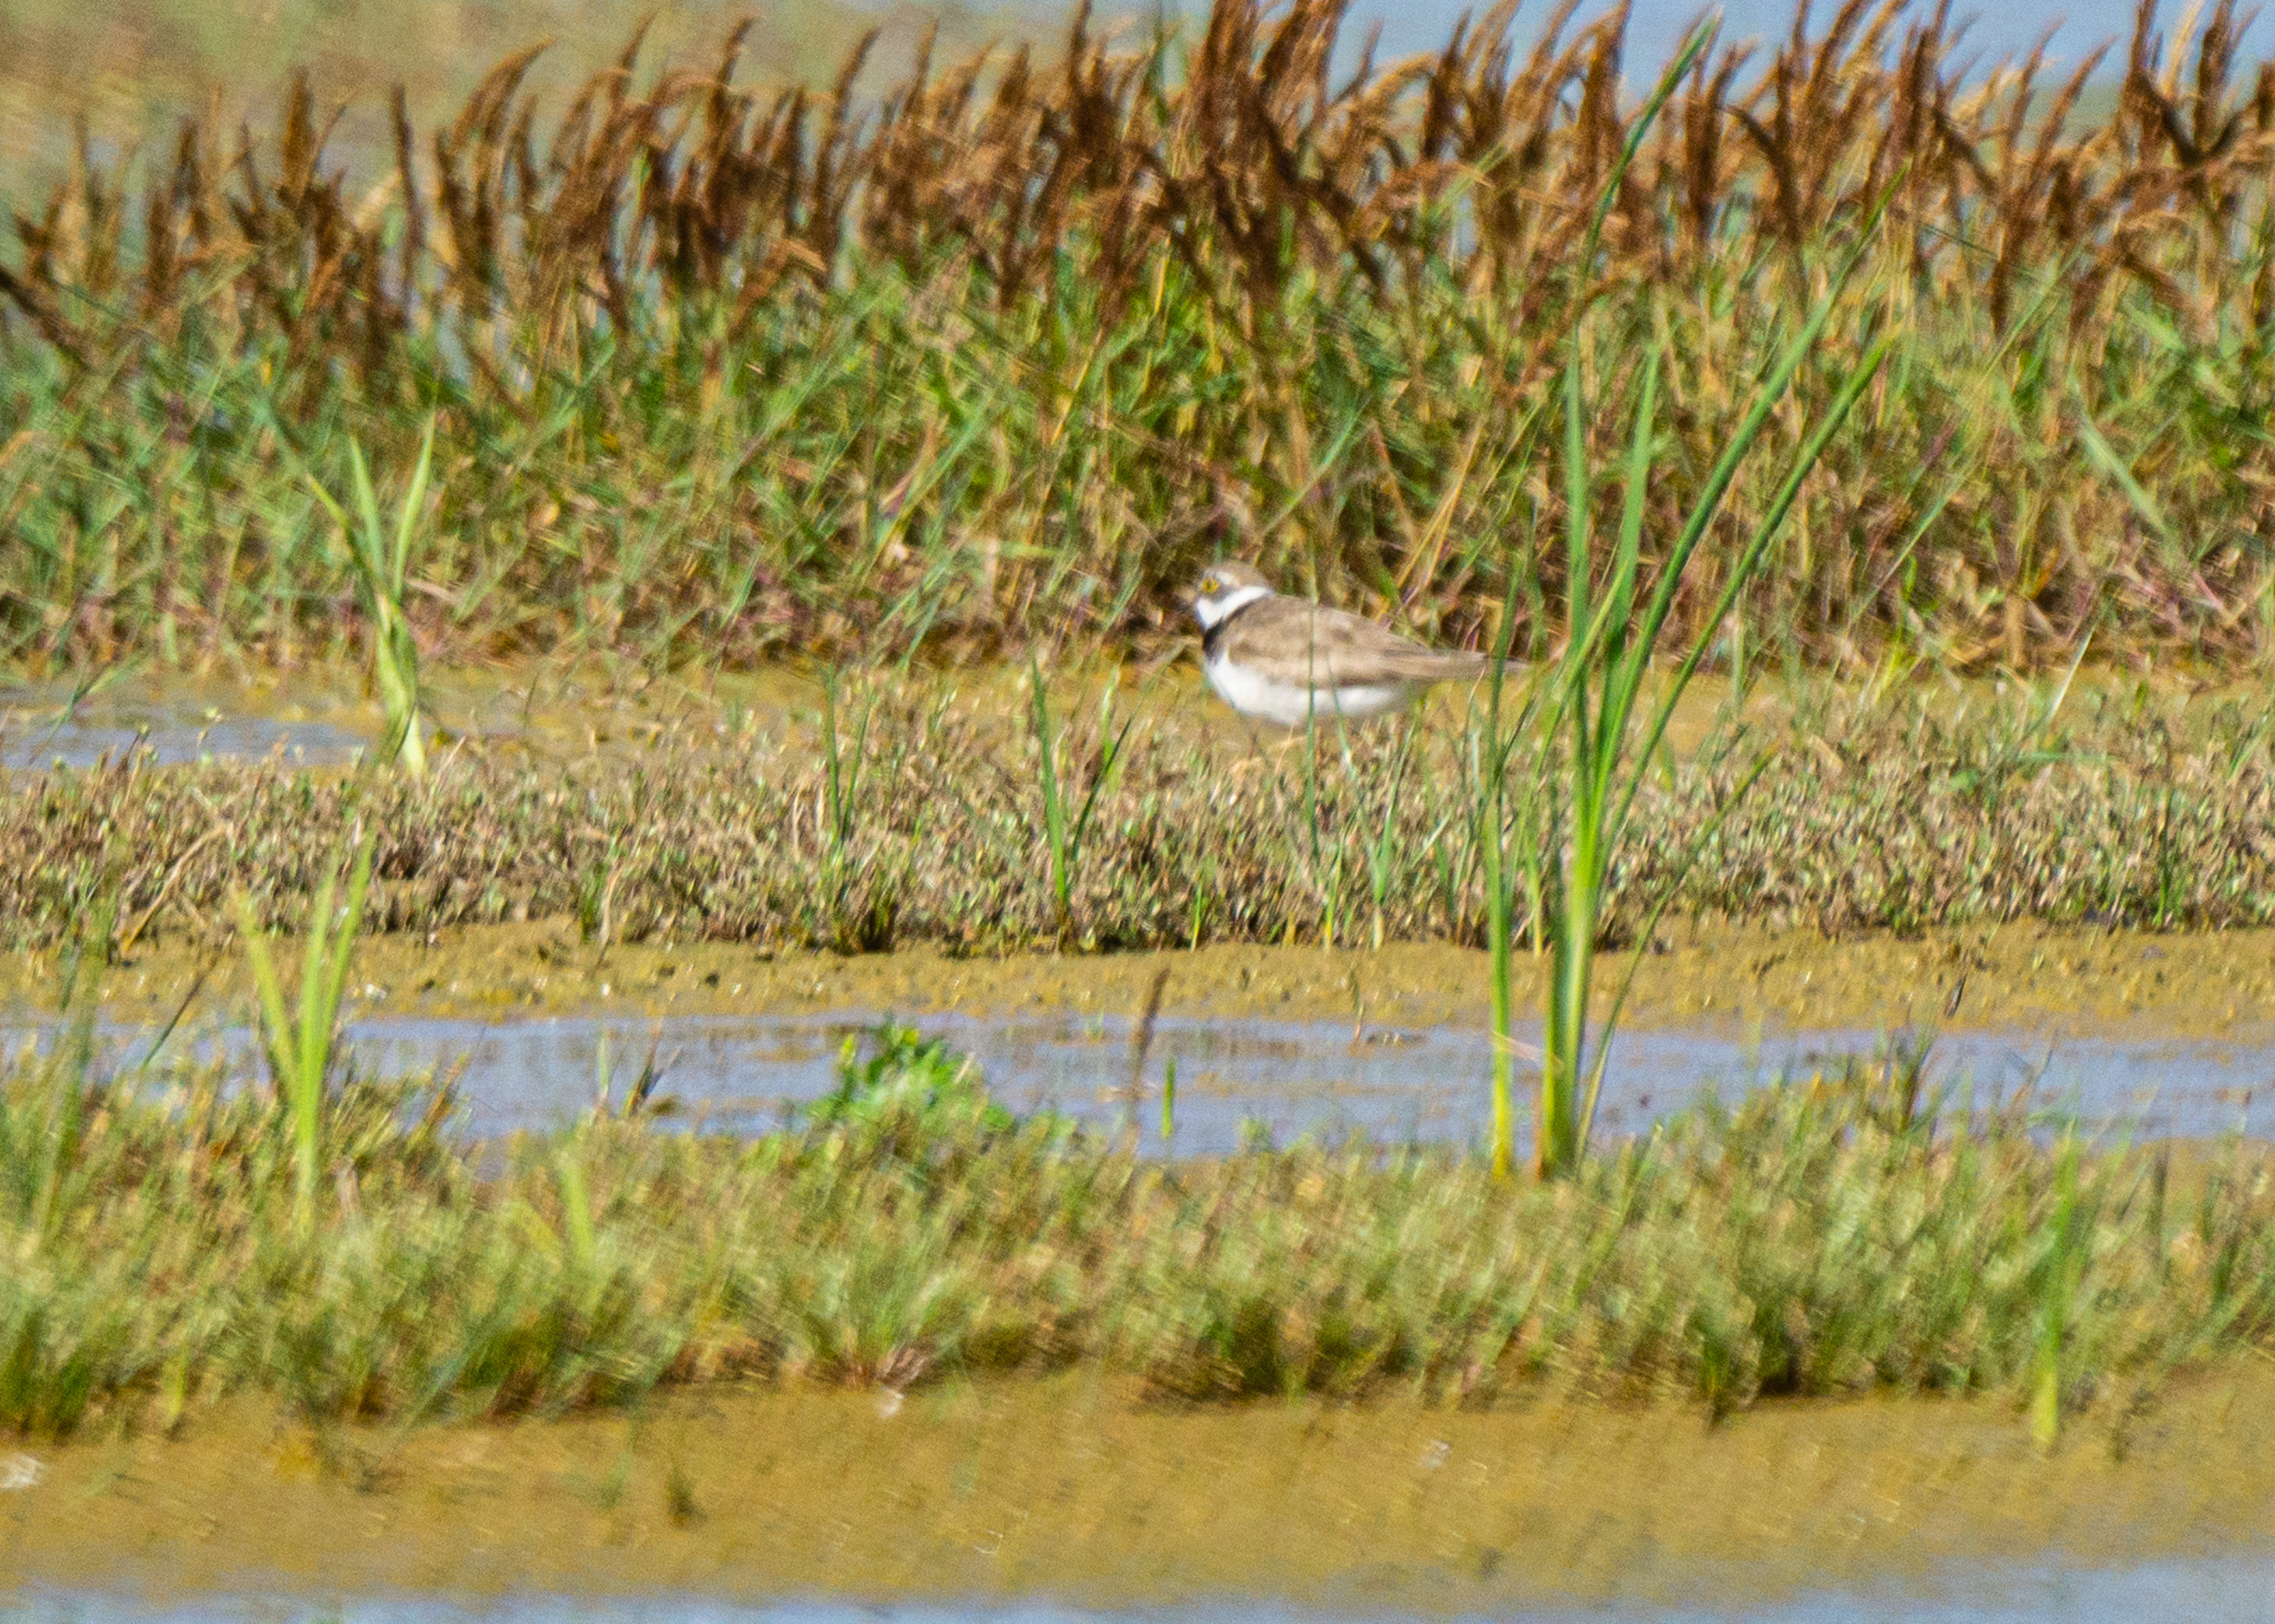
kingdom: Animalia
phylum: Chordata
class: Aves
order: Charadriiformes
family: Charadriidae
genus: Charadrius
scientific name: Charadrius dubius
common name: Lille præstekrave
